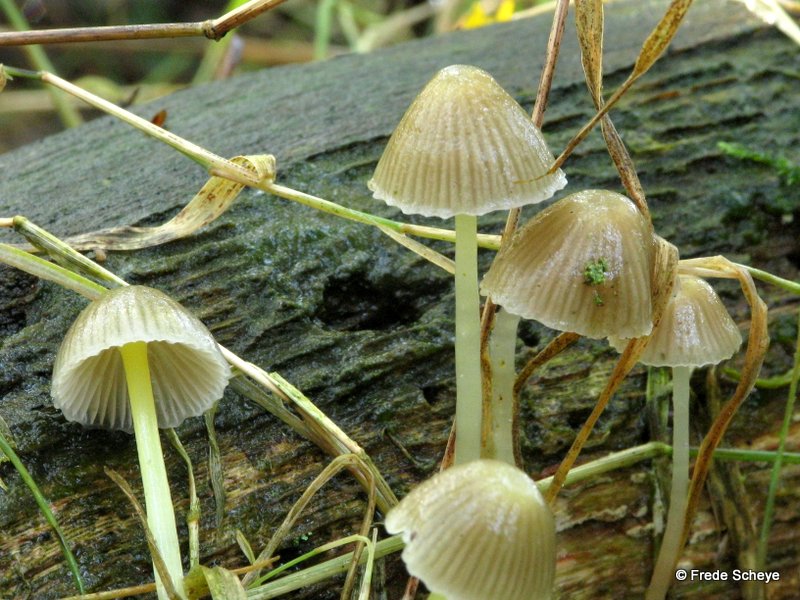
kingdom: Fungi
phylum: Basidiomycota
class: Agaricomycetes
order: Agaricales
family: Mycenaceae
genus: Mycena
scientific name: Mycena epipterygia
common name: gulstokket huesvamp
